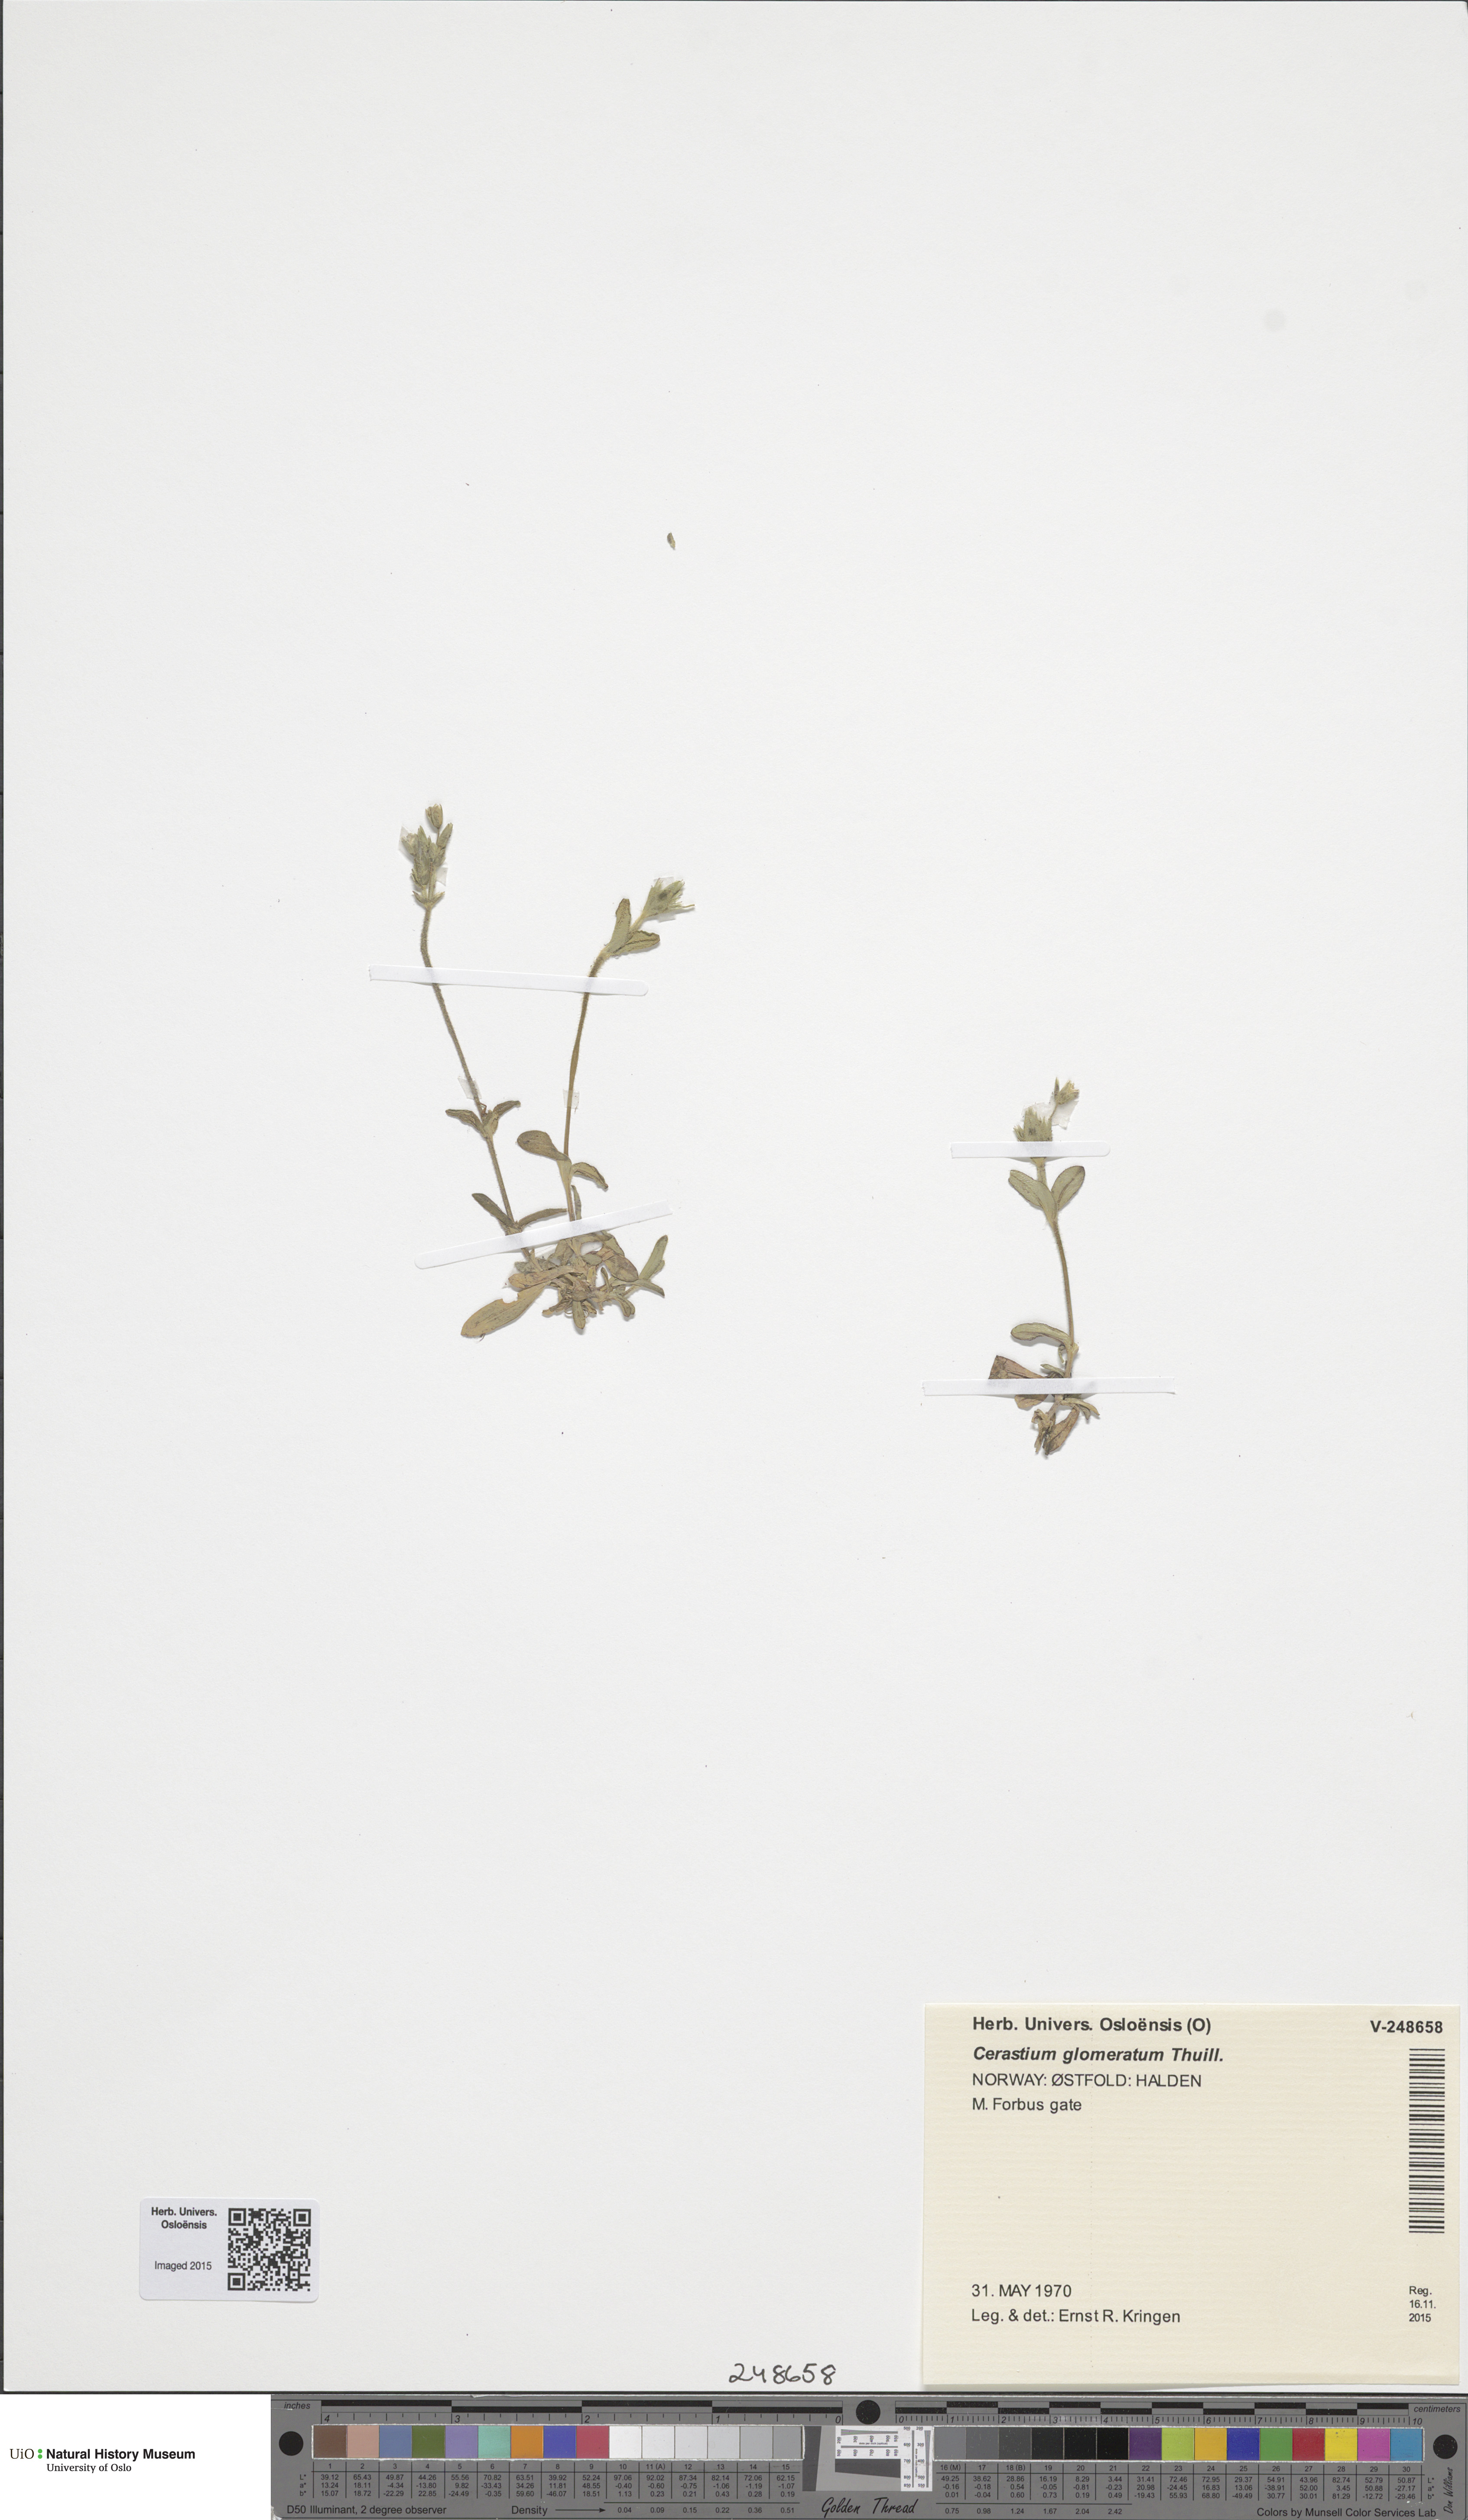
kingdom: Plantae
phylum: Tracheophyta
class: Magnoliopsida
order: Caryophyllales
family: Caryophyllaceae
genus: Cerastium
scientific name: Cerastium holosteoides
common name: Big chickweed
